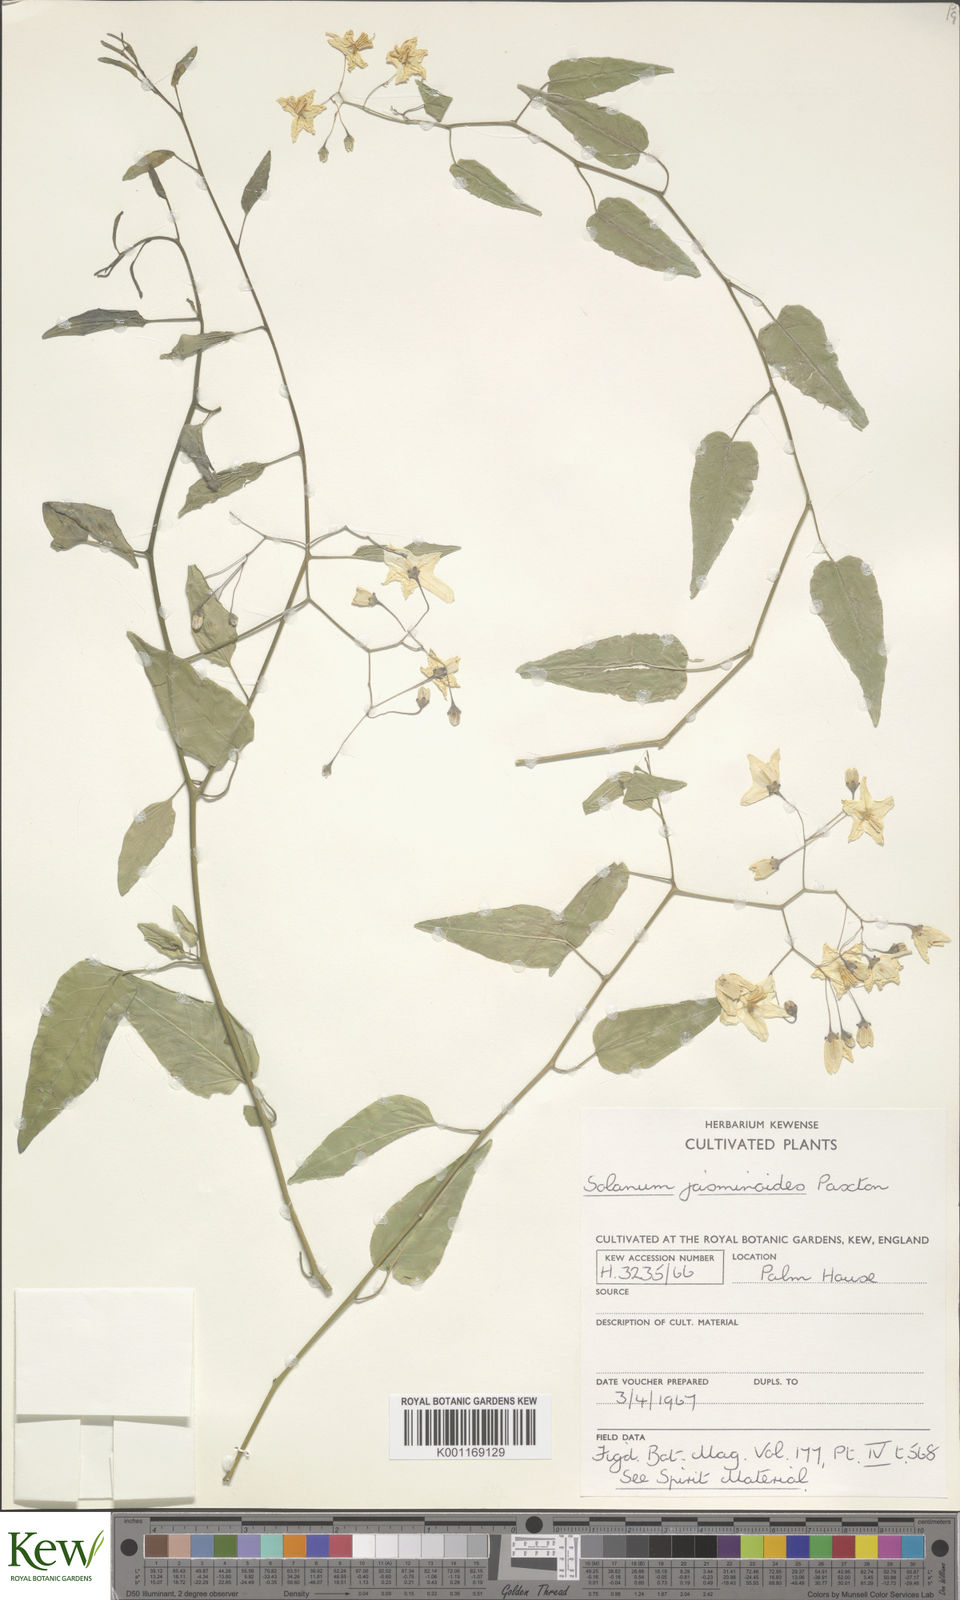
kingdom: Plantae
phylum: Tracheophyta
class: Magnoliopsida
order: Solanales
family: Solanaceae
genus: Solanum
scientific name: Solanum laxum
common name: Nightshade
